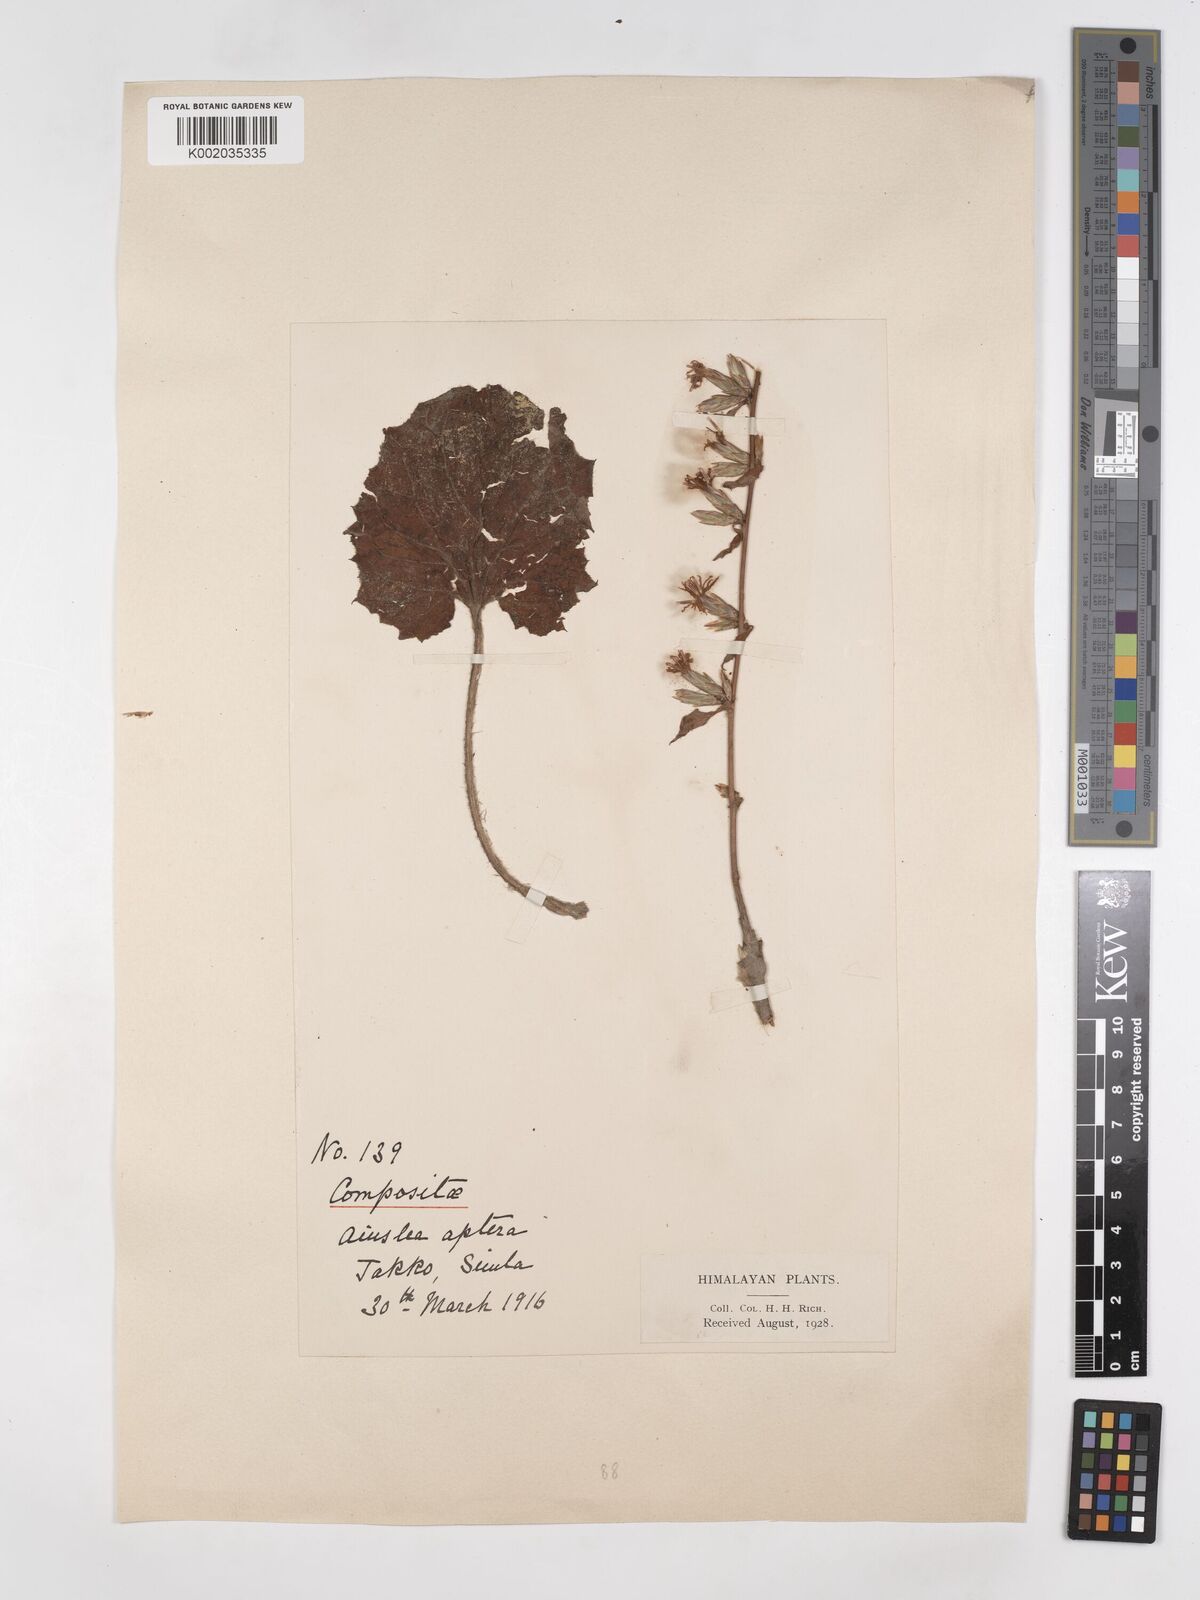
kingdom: Plantae
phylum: Tracheophyta
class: Magnoliopsida
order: Asterales
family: Asteraceae
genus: Ainsliaea
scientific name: Ainsliaea aptera
